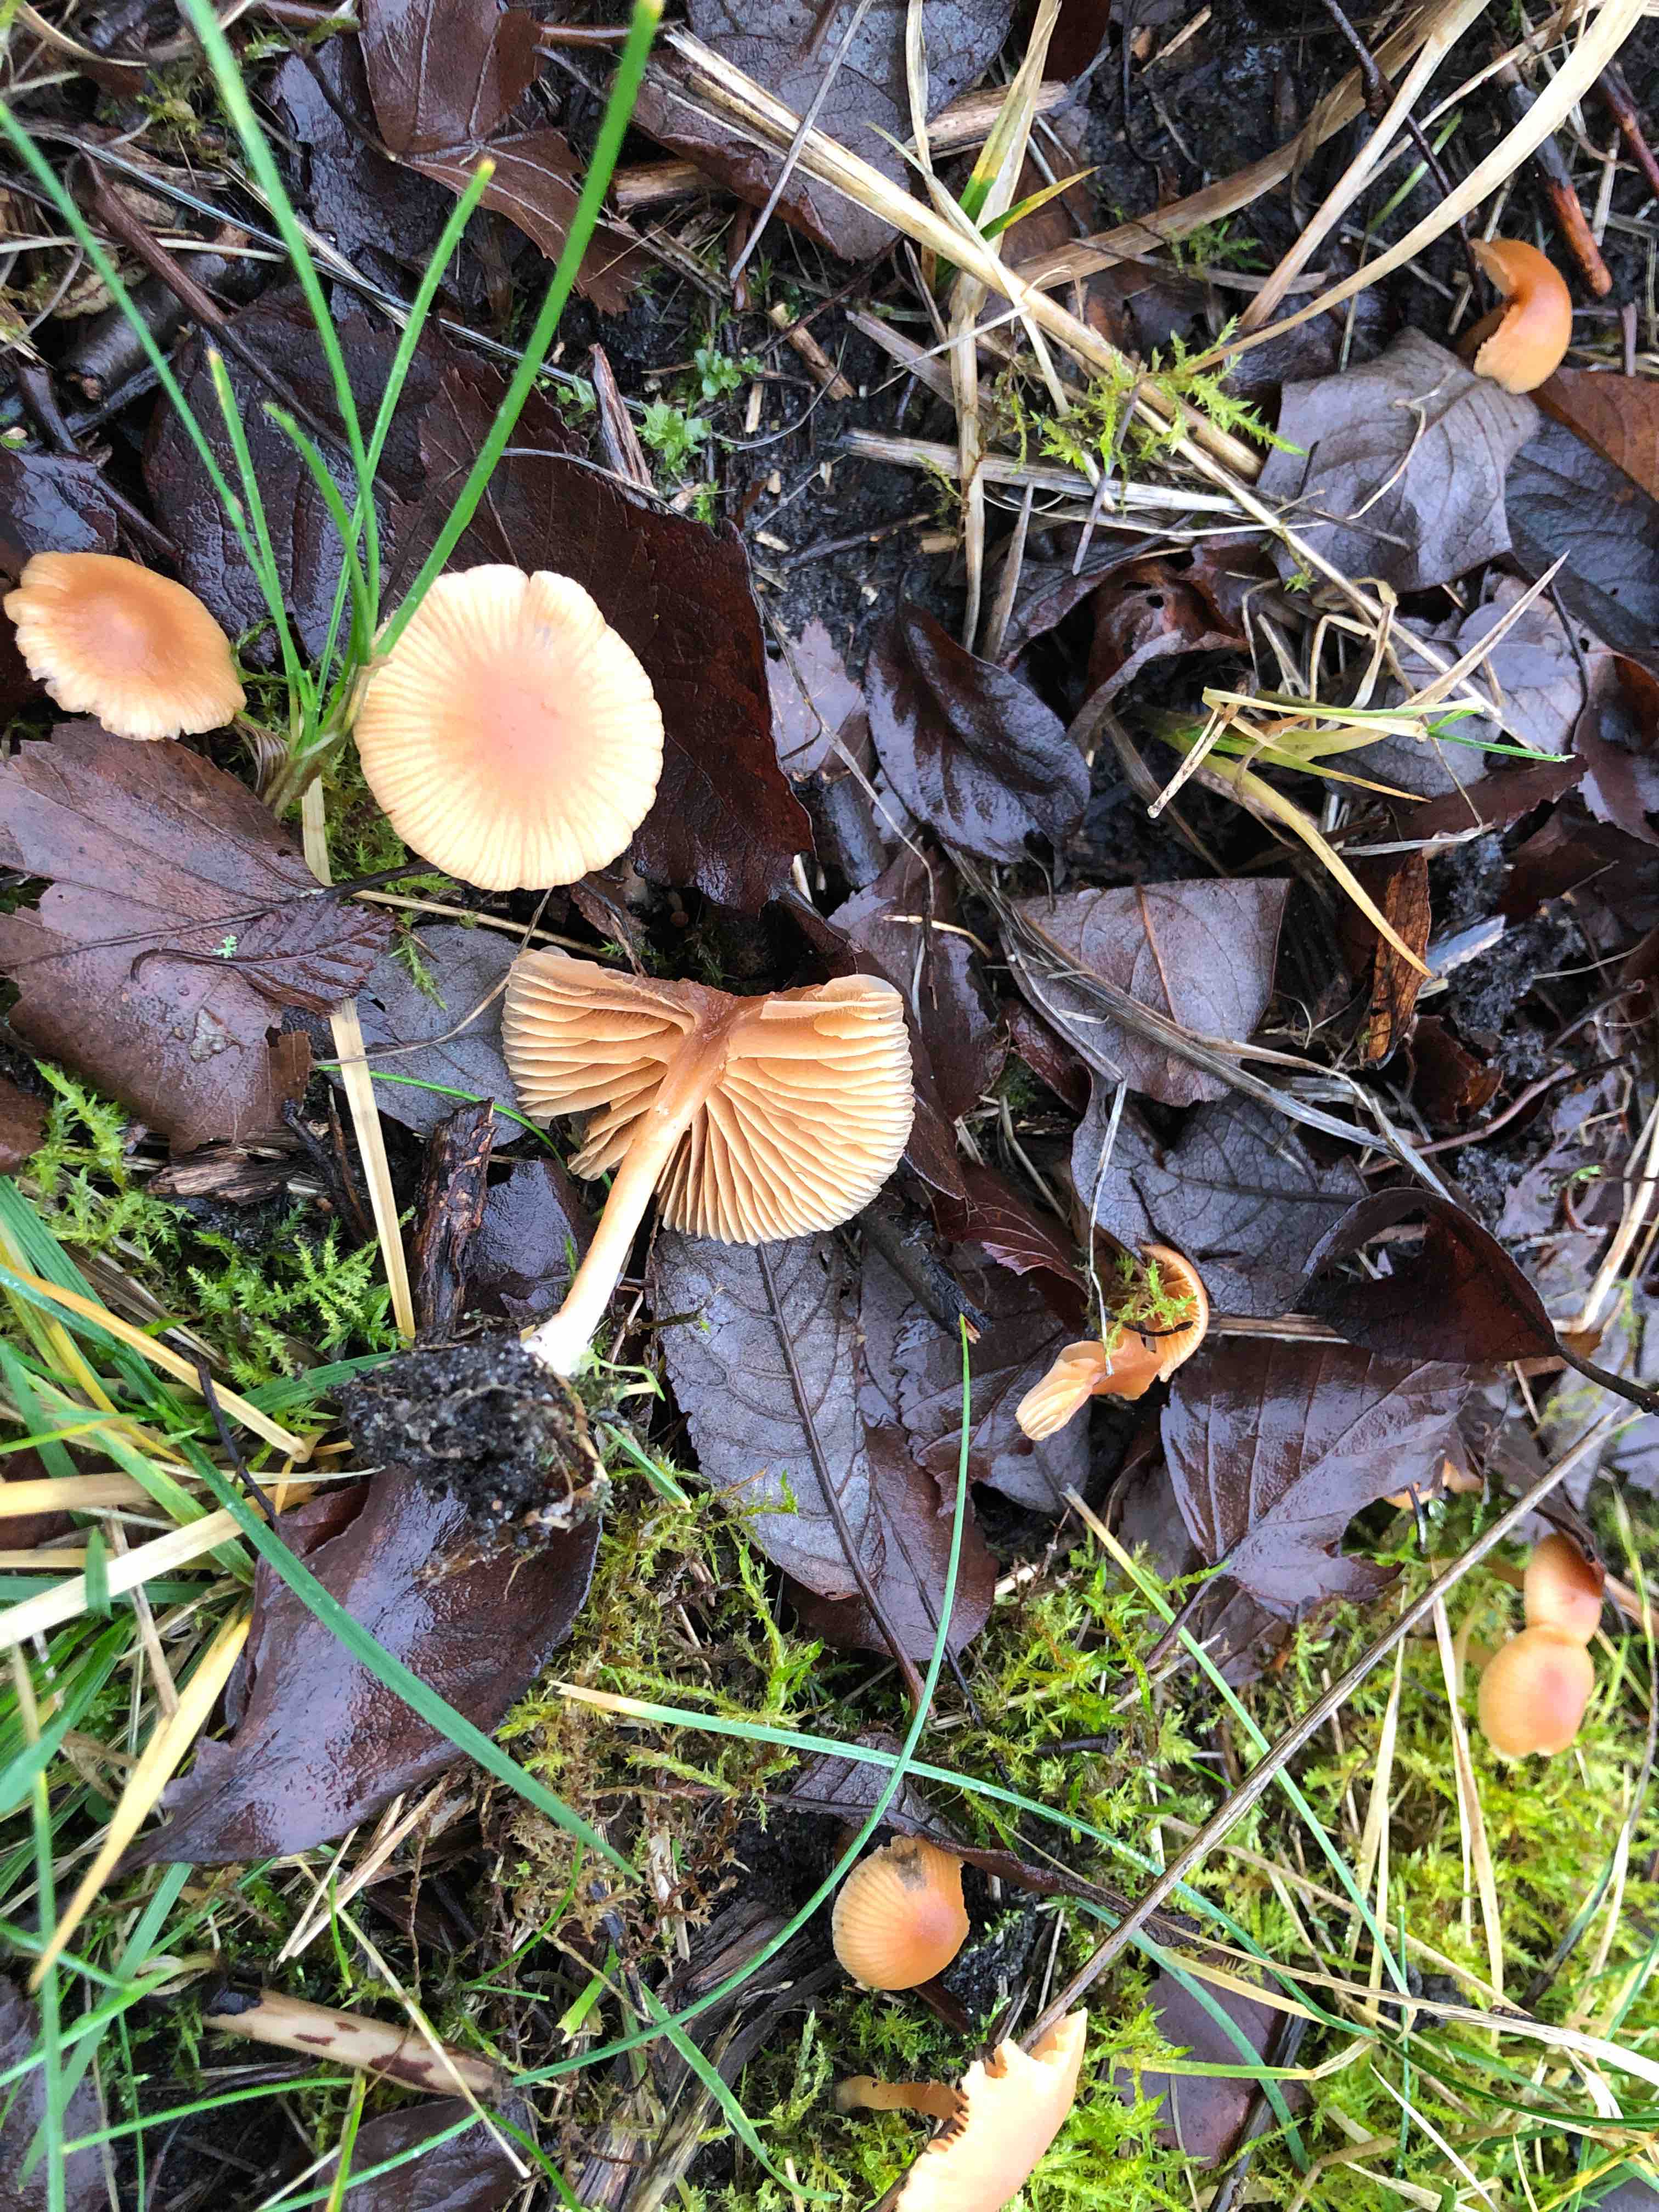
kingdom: Fungi
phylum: Basidiomycota
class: Agaricomycetes
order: Agaricales
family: Tubariaceae
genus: Tubaria
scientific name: Tubaria furfuracea
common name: kliddet fnughat
